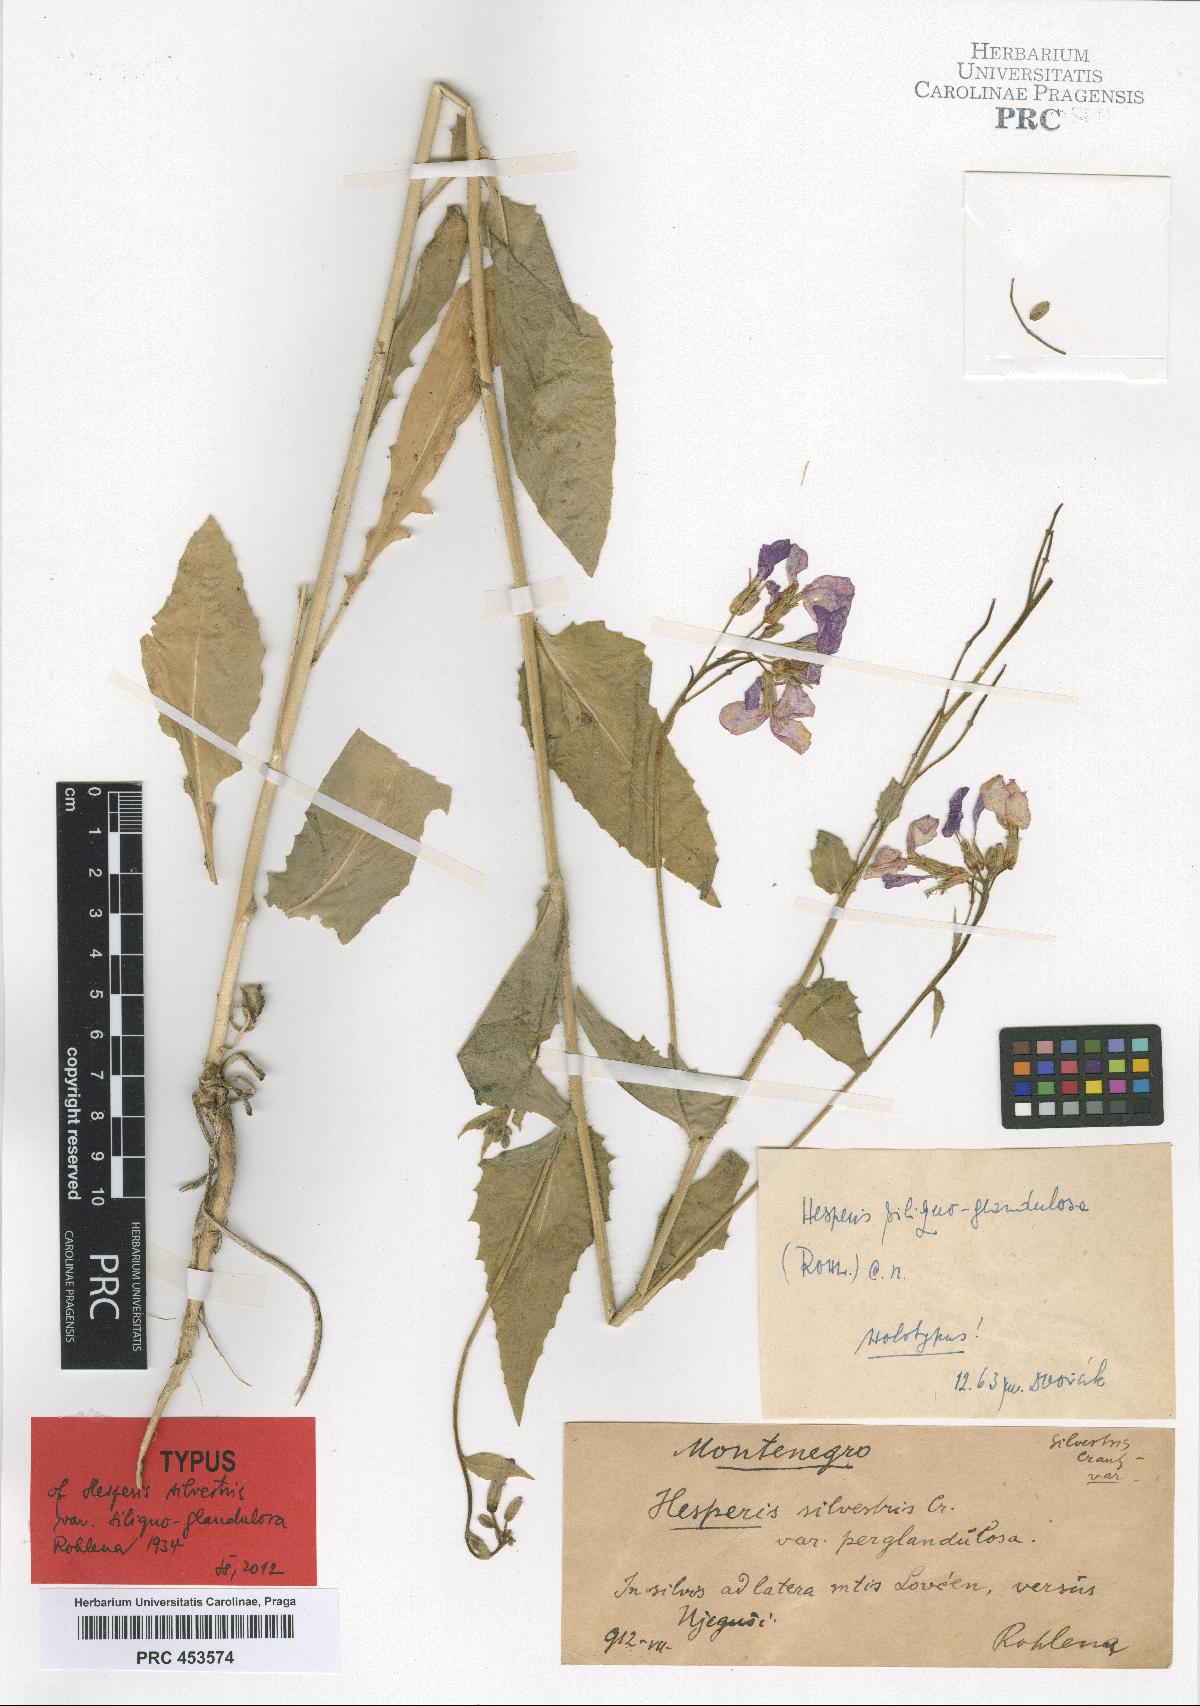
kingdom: Plantae
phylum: Tracheophyta
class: Magnoliopsida
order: Brassicales
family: Brassicaceae
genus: Hesperis
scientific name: Hesperis sylvestris
